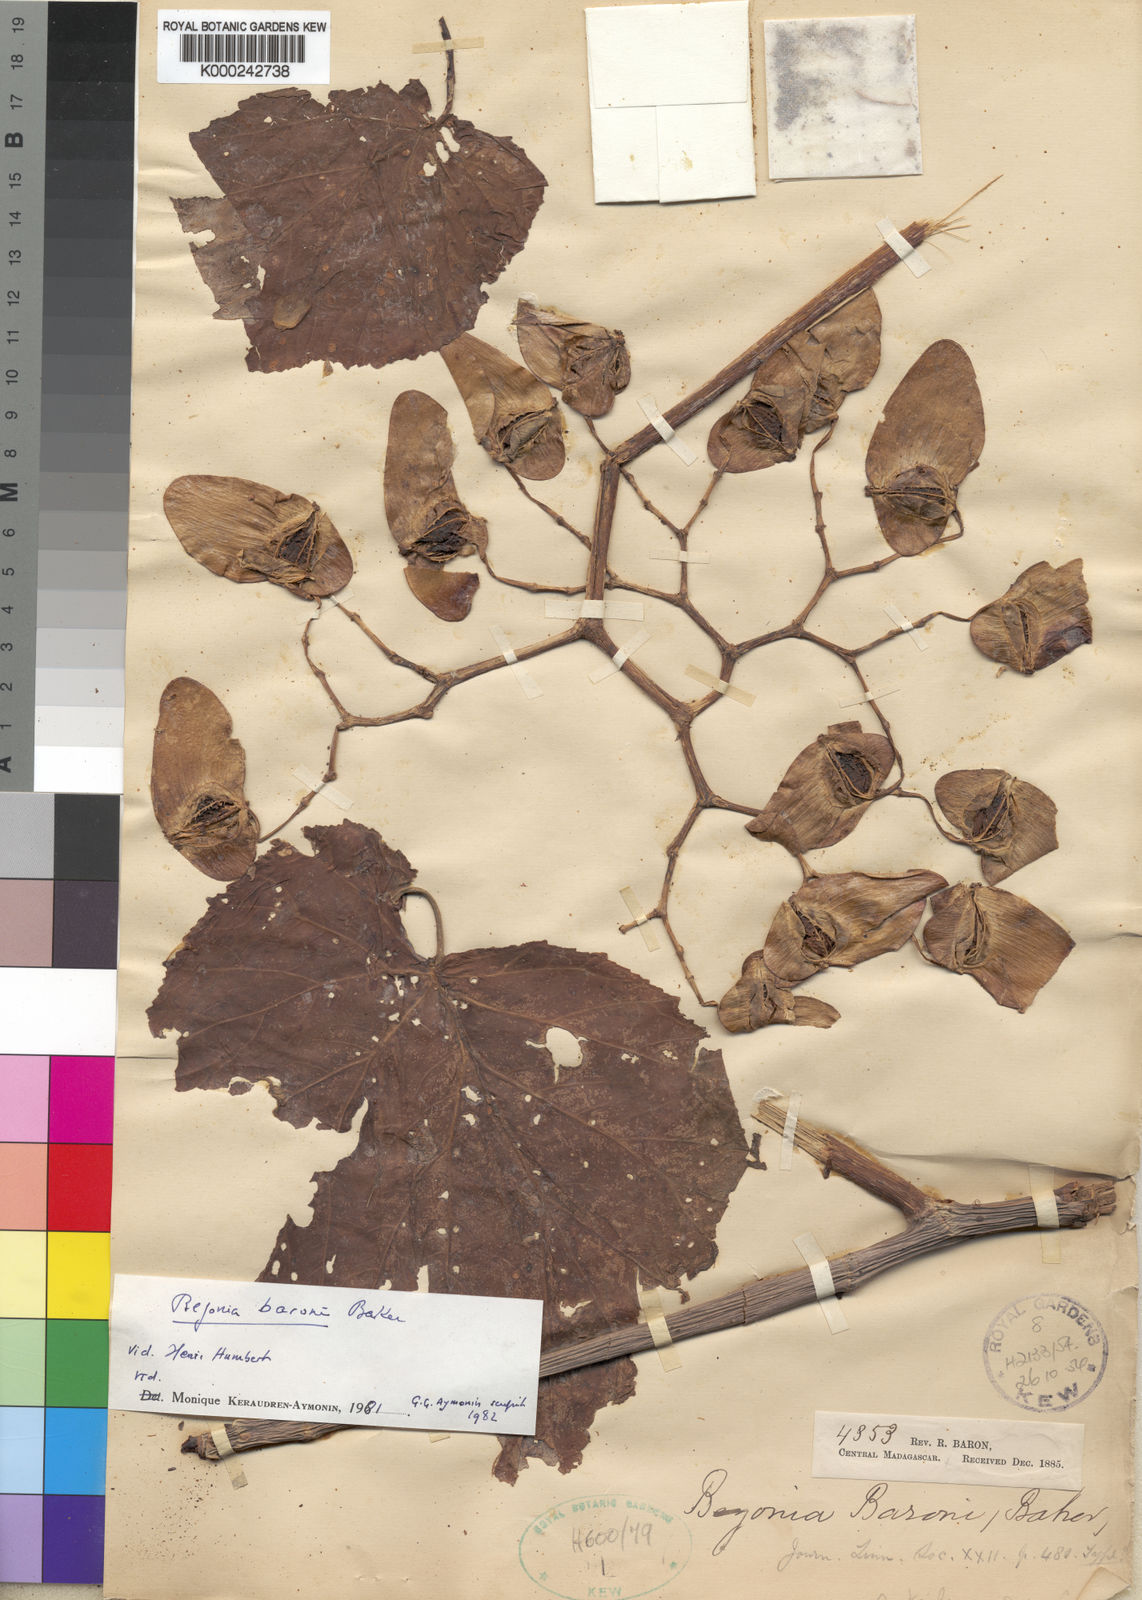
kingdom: Plantae
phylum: Tracheophyta
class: Magnoliopsida
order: Cucurbitales
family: Begoniaceae
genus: Begonia
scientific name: Begonia baronii
